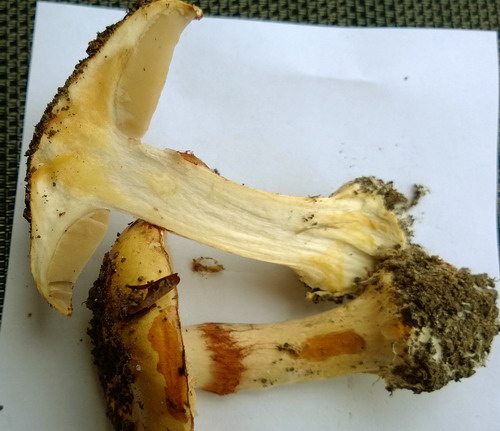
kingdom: Fungi
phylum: Basidiomycota
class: Agaricomycetes
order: Agaricales
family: Cortinariaceae
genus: Phlegmacium
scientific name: Phlegmacium caesiocortinatum
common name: rundsporet slørhat
